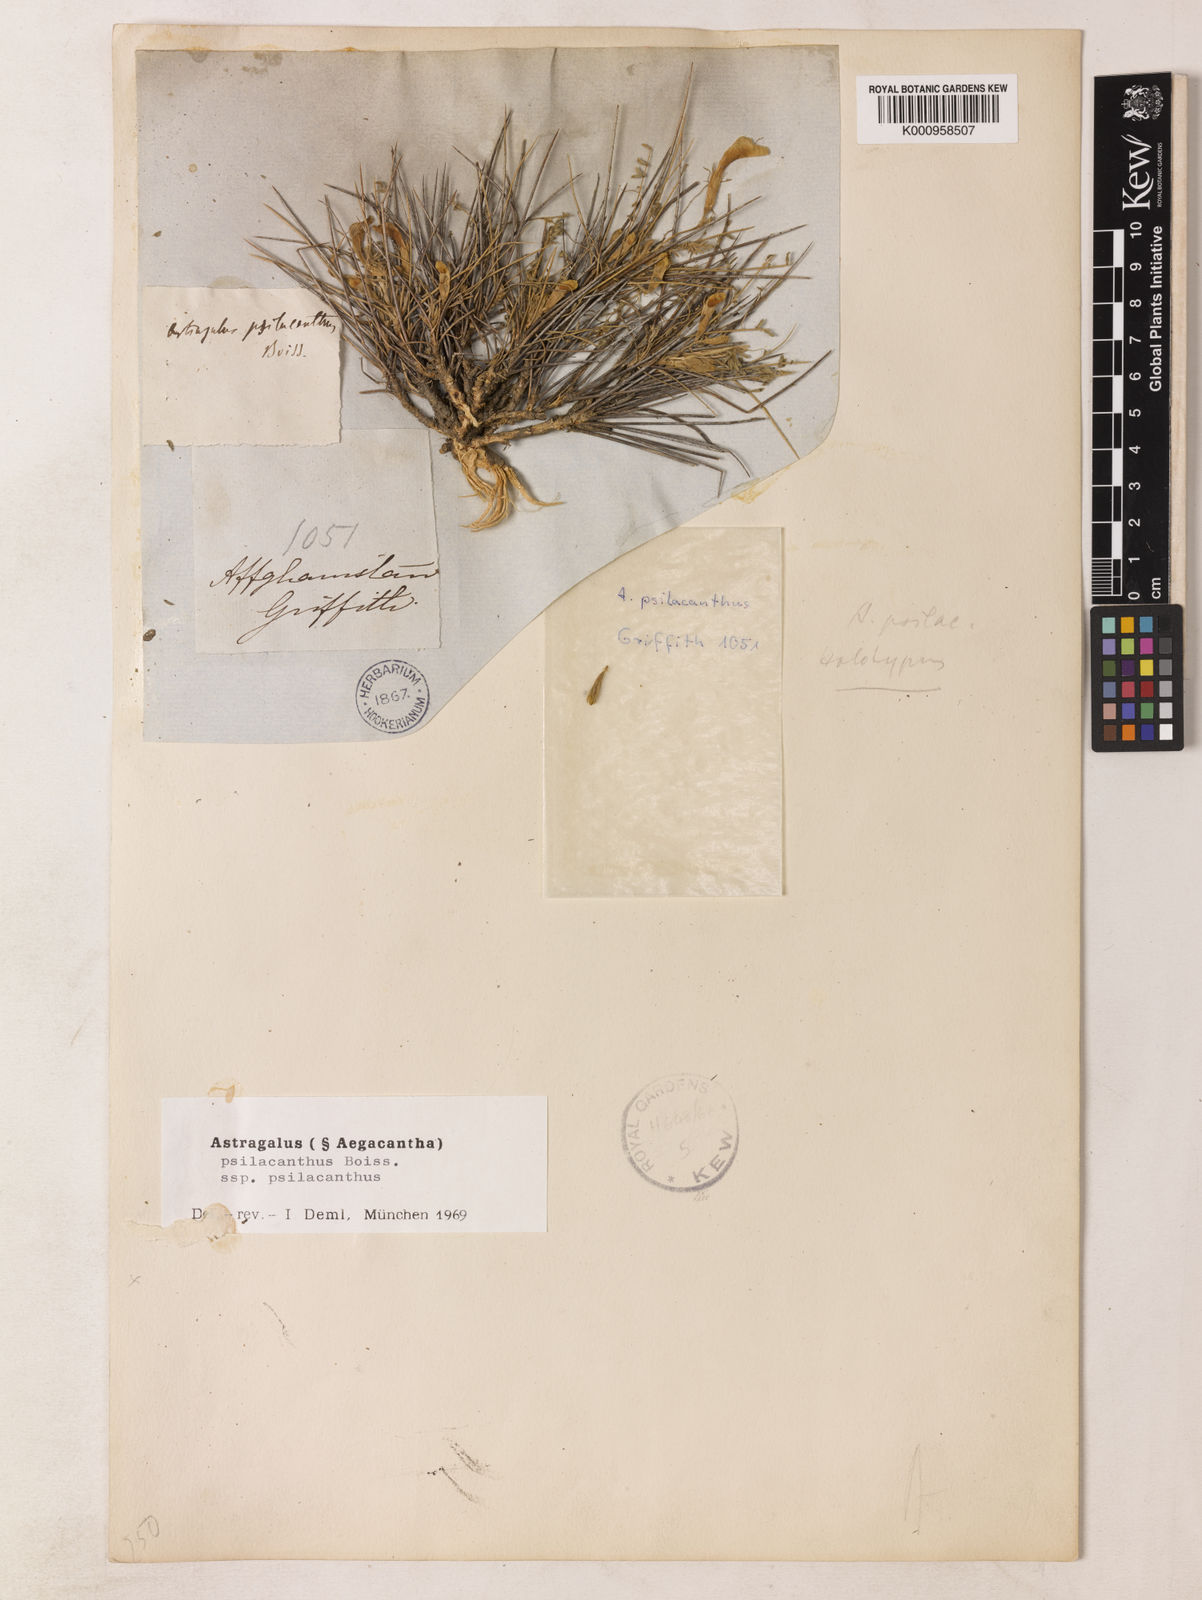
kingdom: Plantae
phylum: Tracheophyta
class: Magnoliopsida
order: Fabales
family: Fabaceae
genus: Astragalus
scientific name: Astragalus psilacanthus
